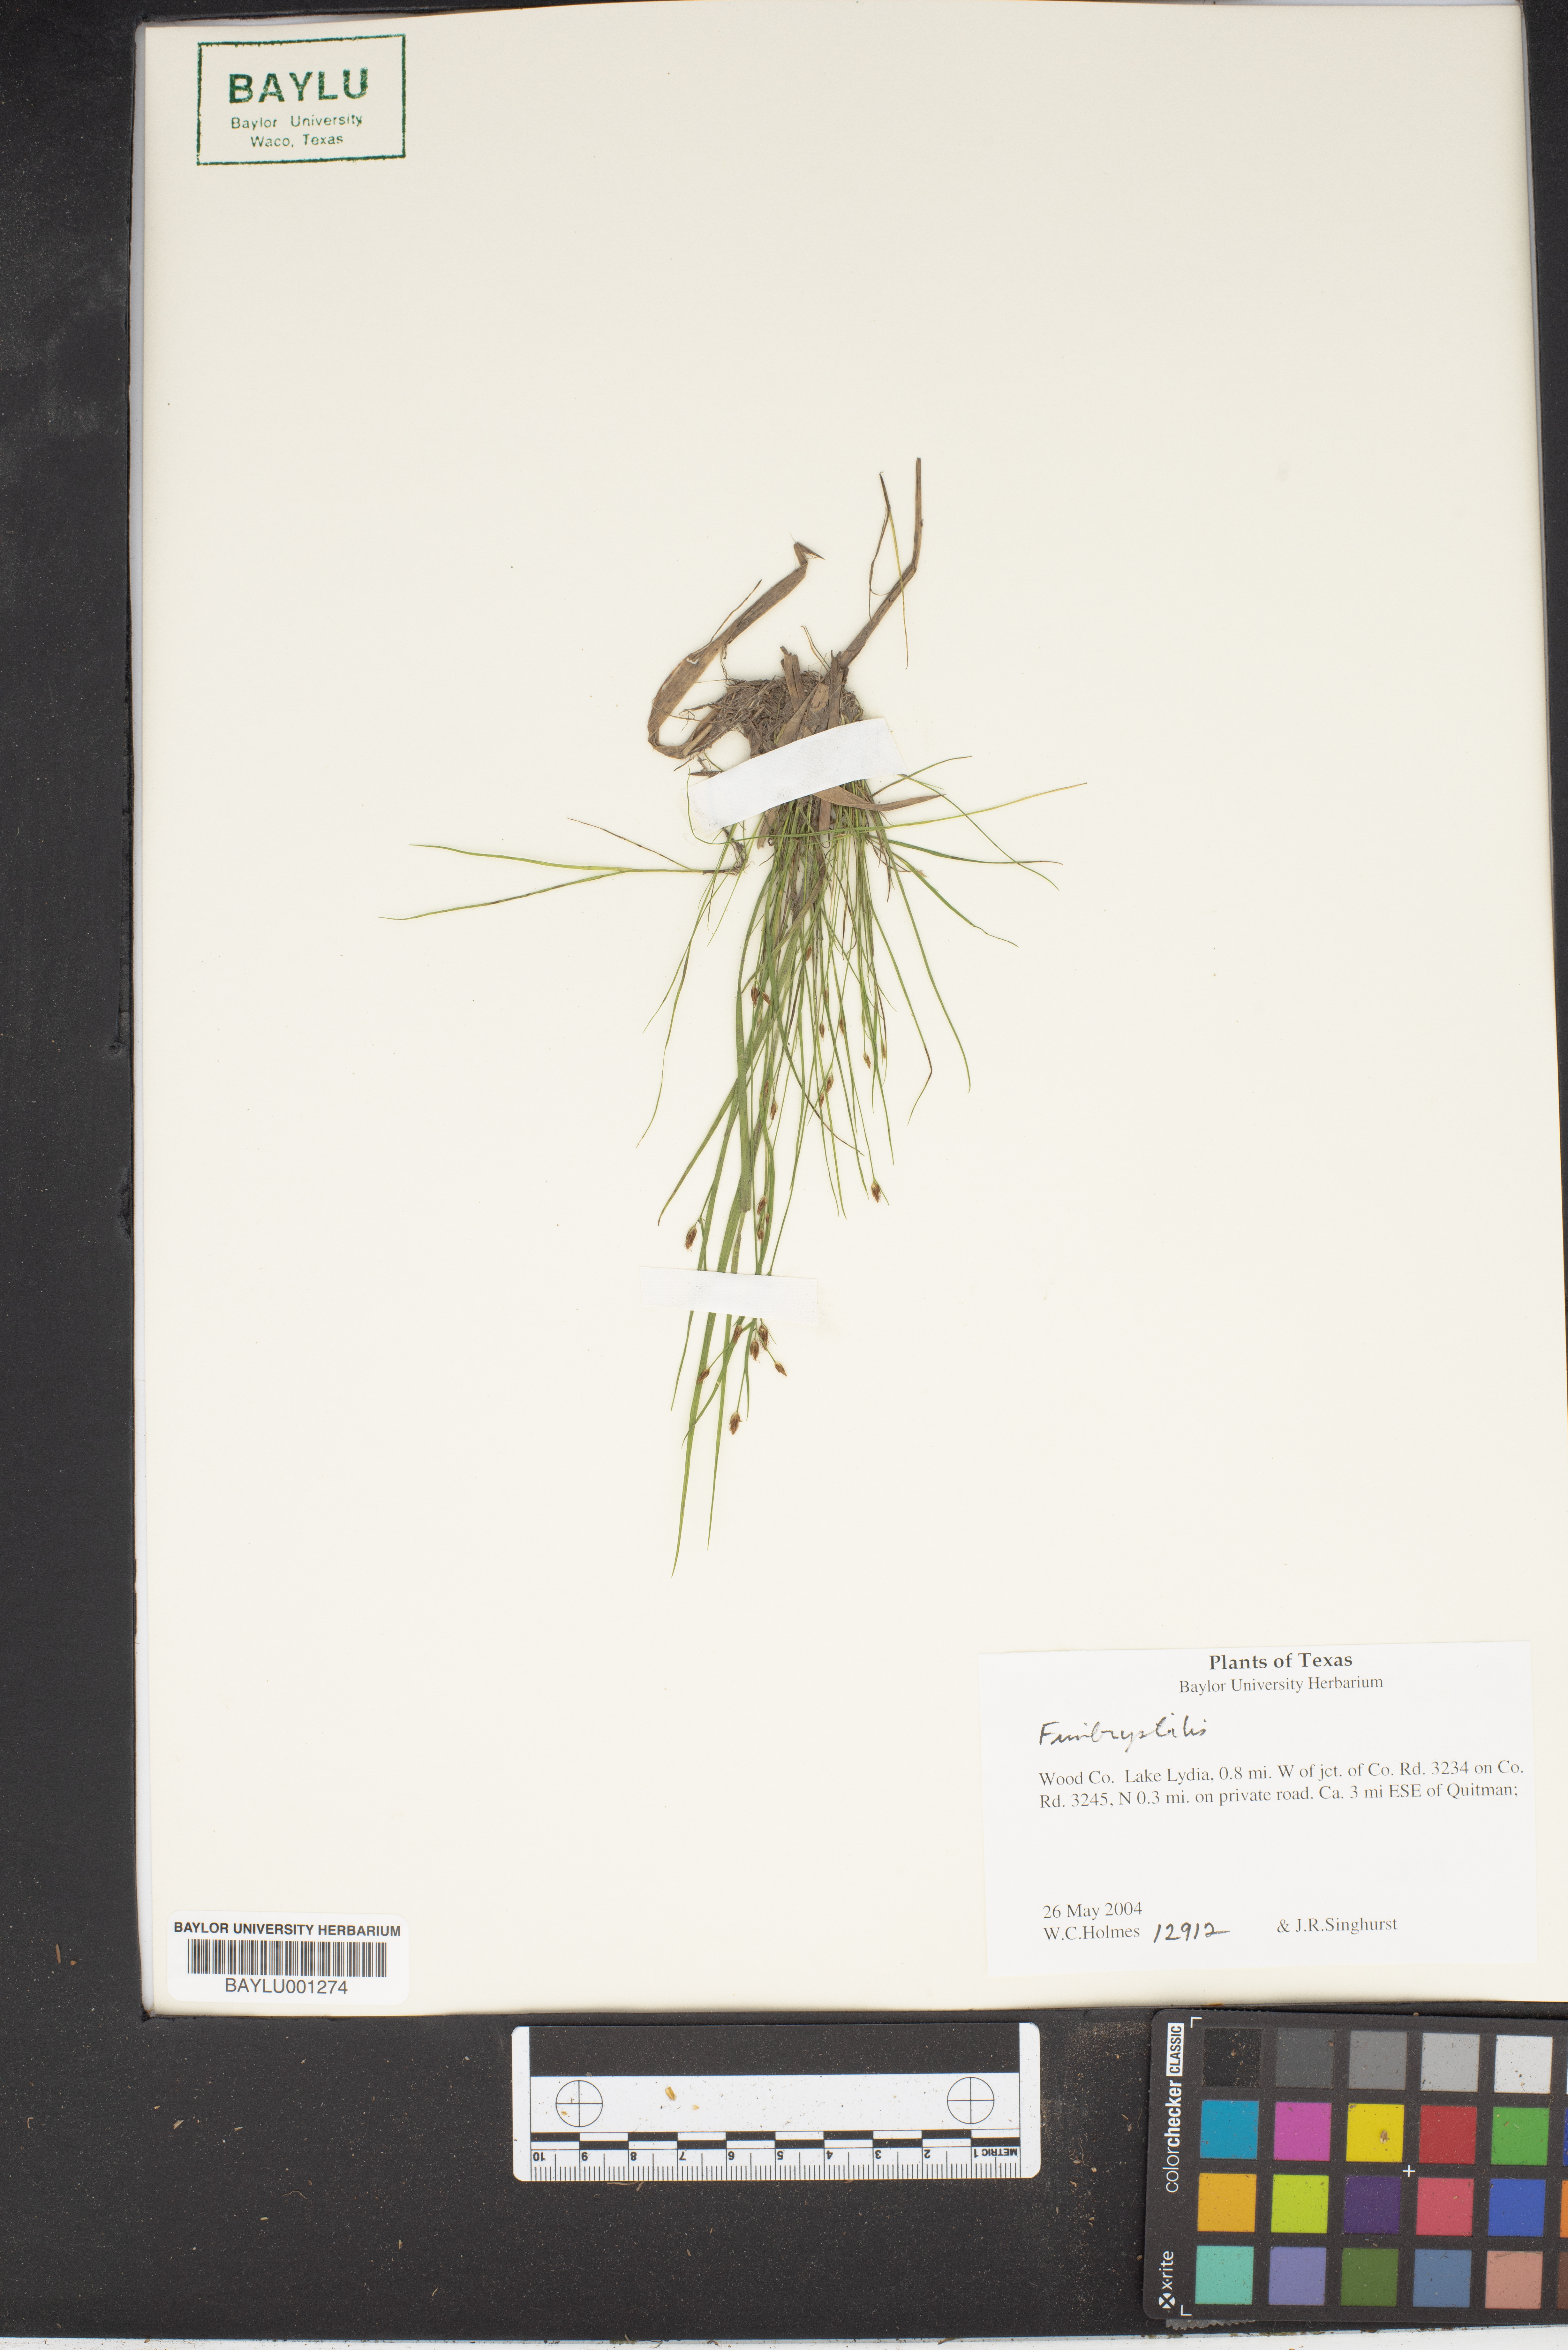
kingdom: Plantae
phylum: Tracheophyta
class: Liliopsida
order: Poales
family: Cyperaceae
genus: Fimbristylis
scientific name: Fimbristylis
